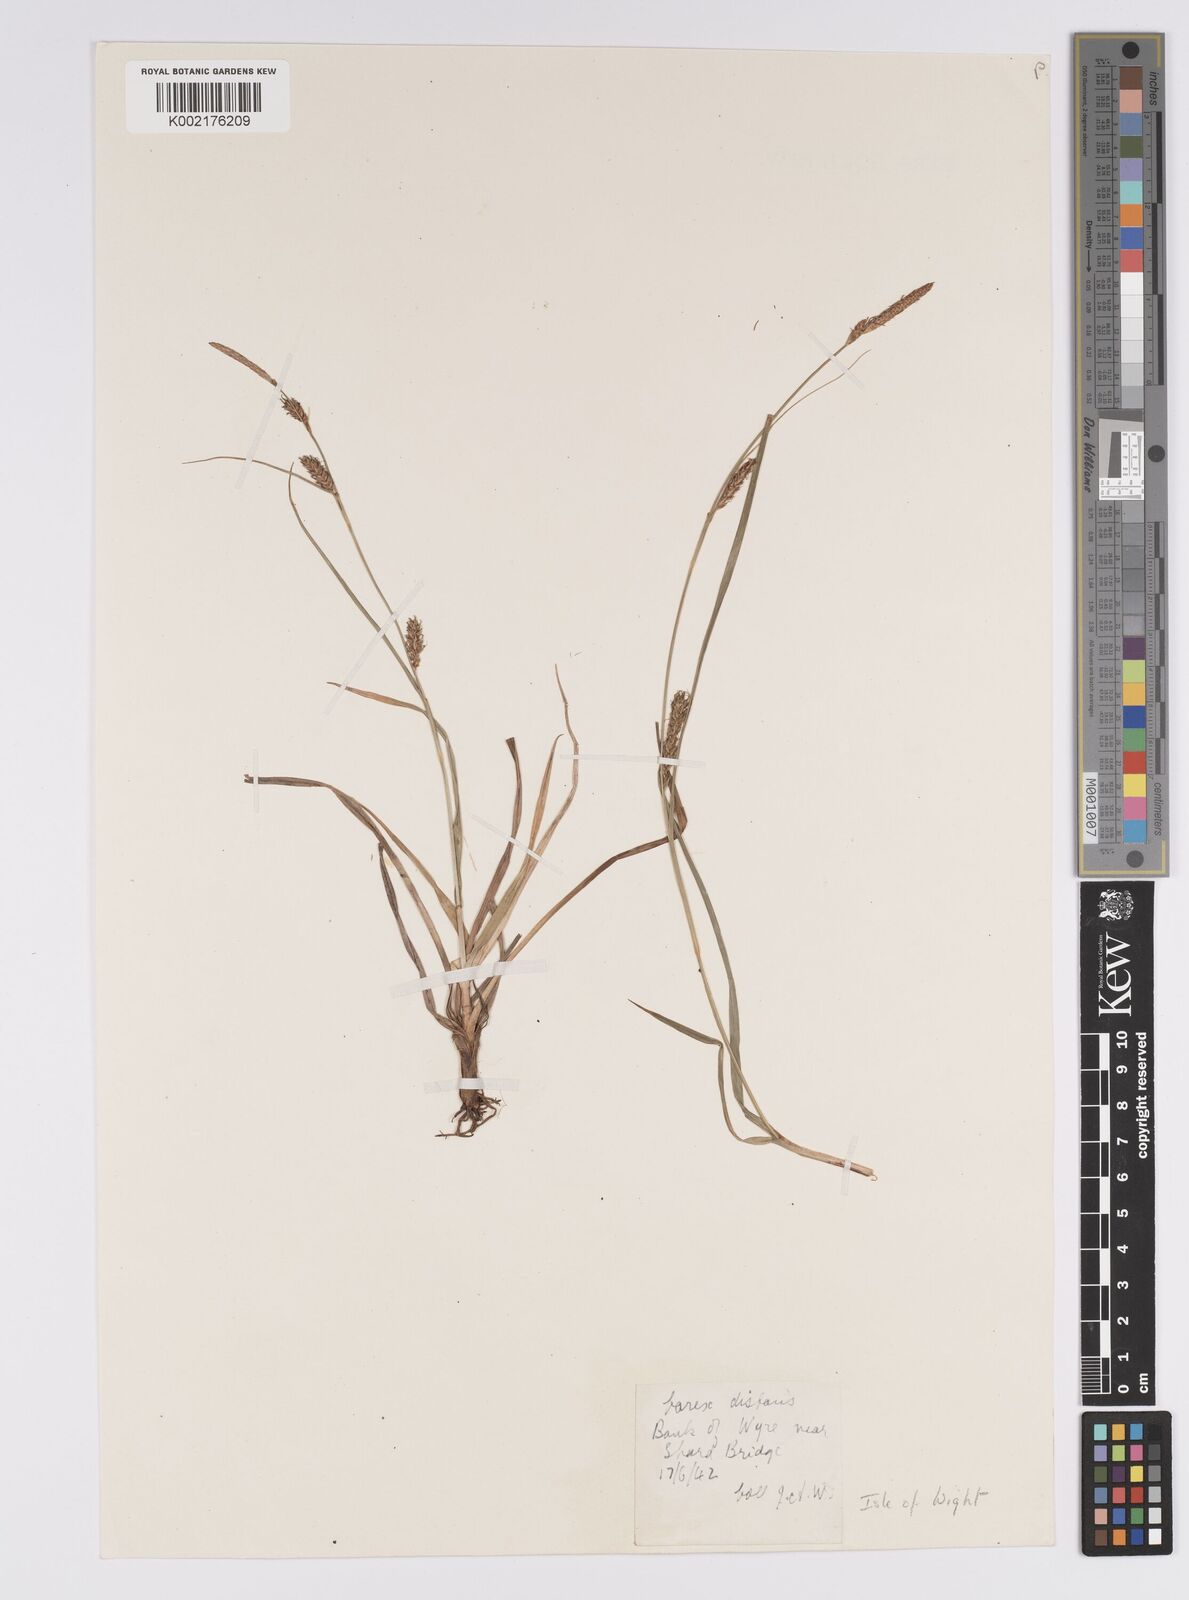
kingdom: Plantae
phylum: Tracheophyta
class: Liliopsida
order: Poales
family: Cyperaceae
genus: Carex
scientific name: Carex distans
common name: Distant sedge
